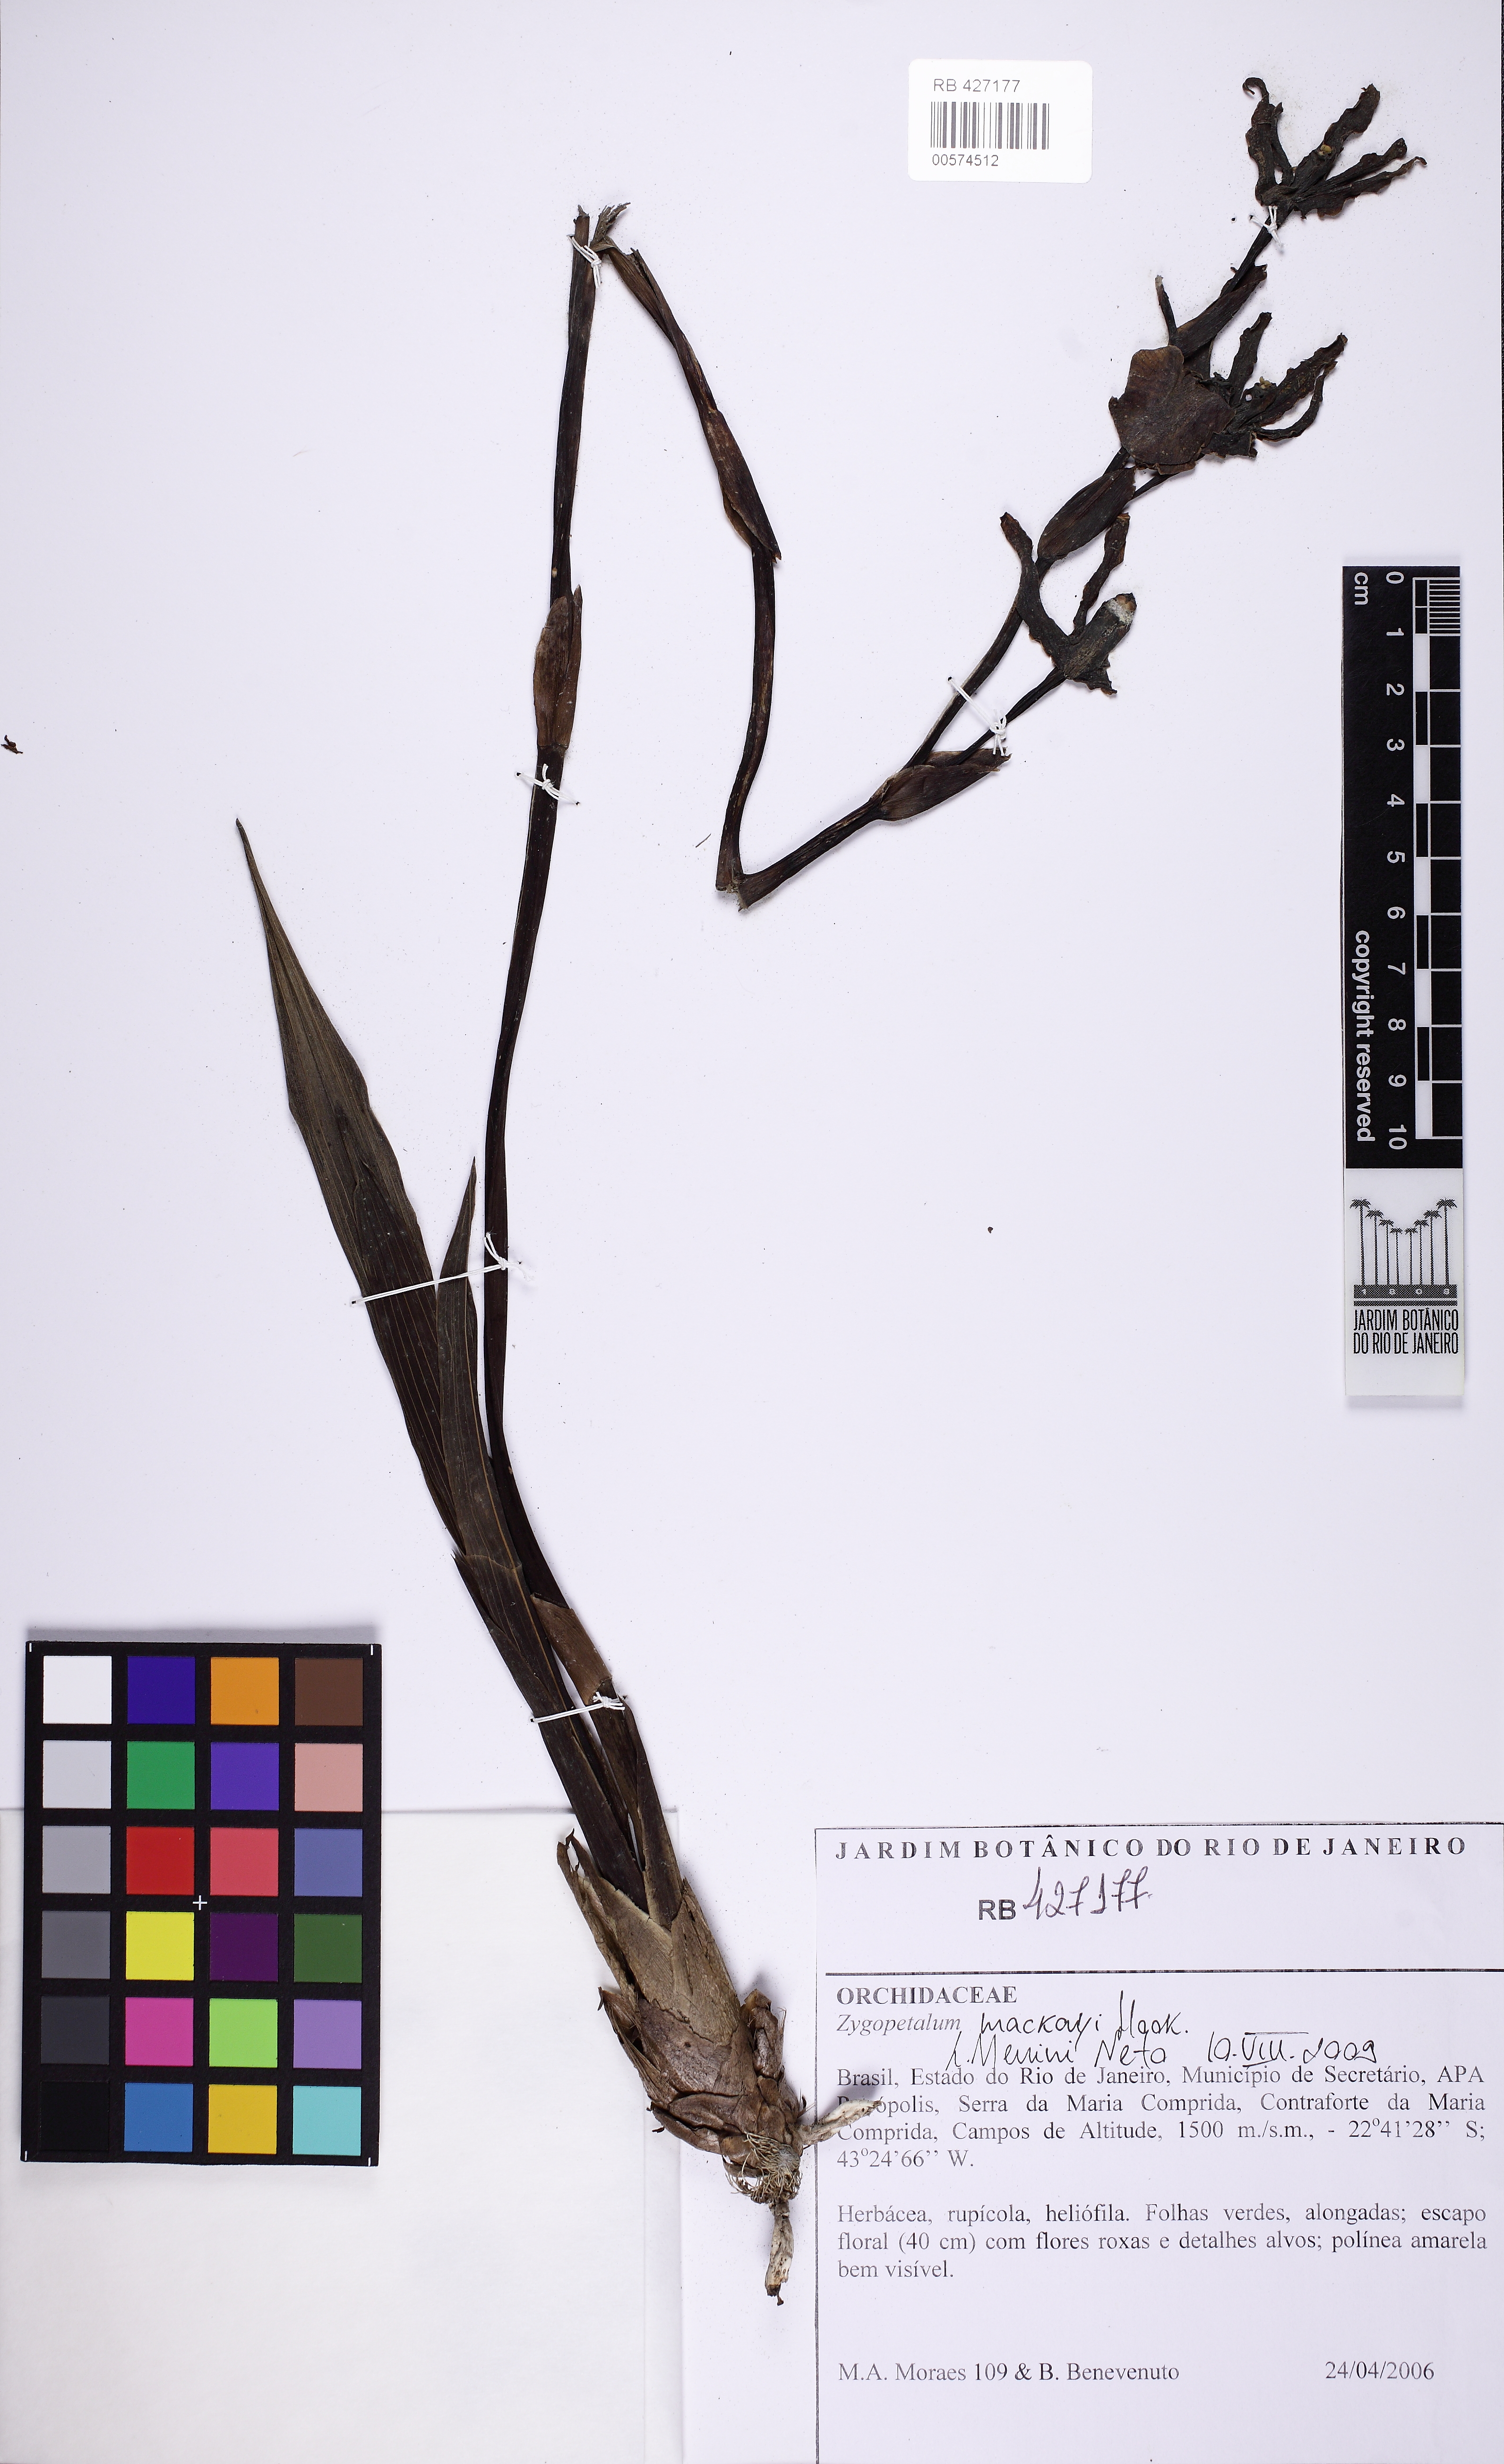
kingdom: Plantae
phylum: Tracheophyta
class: Liliopsida
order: Asparagales
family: Orchidaceae
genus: Zygopetalum
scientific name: Zygopetalum maculatum
